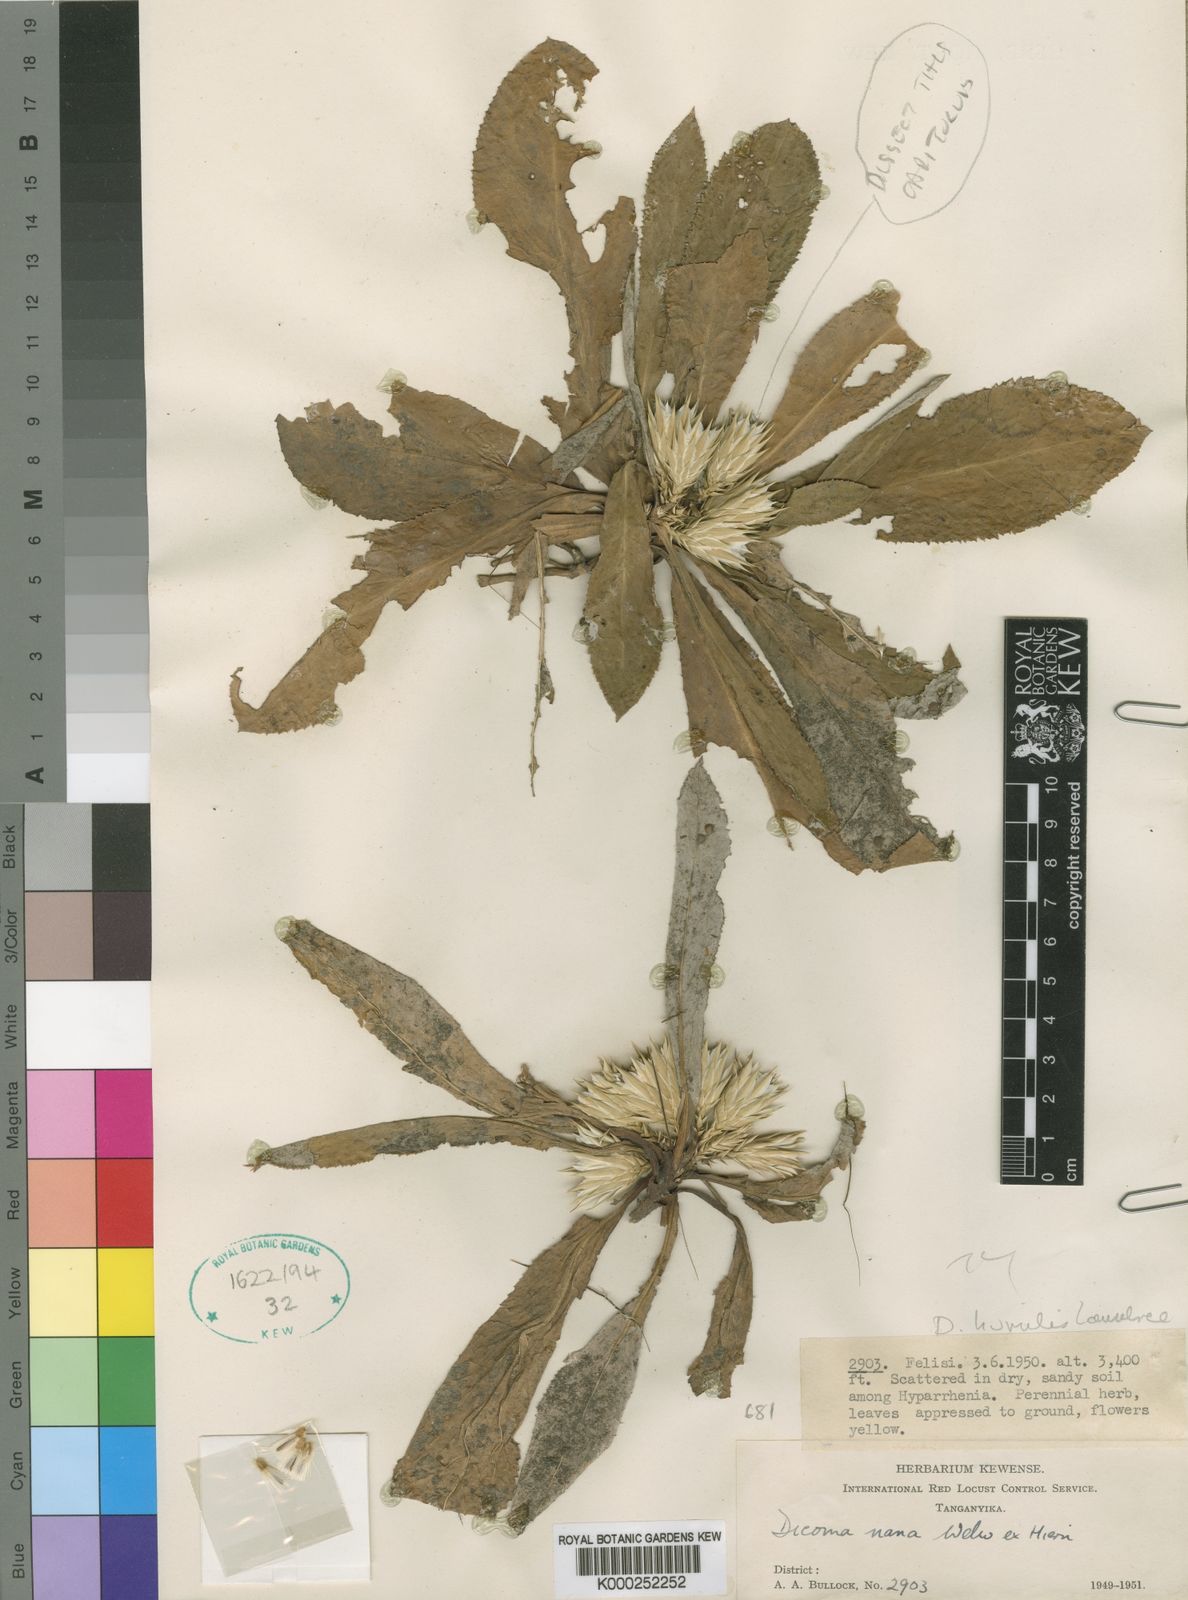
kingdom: Plantae
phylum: Tracheophyta
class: Magnoliopsida
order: Asterales
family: Asteraceae
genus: Dicoma
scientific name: Dicoma
